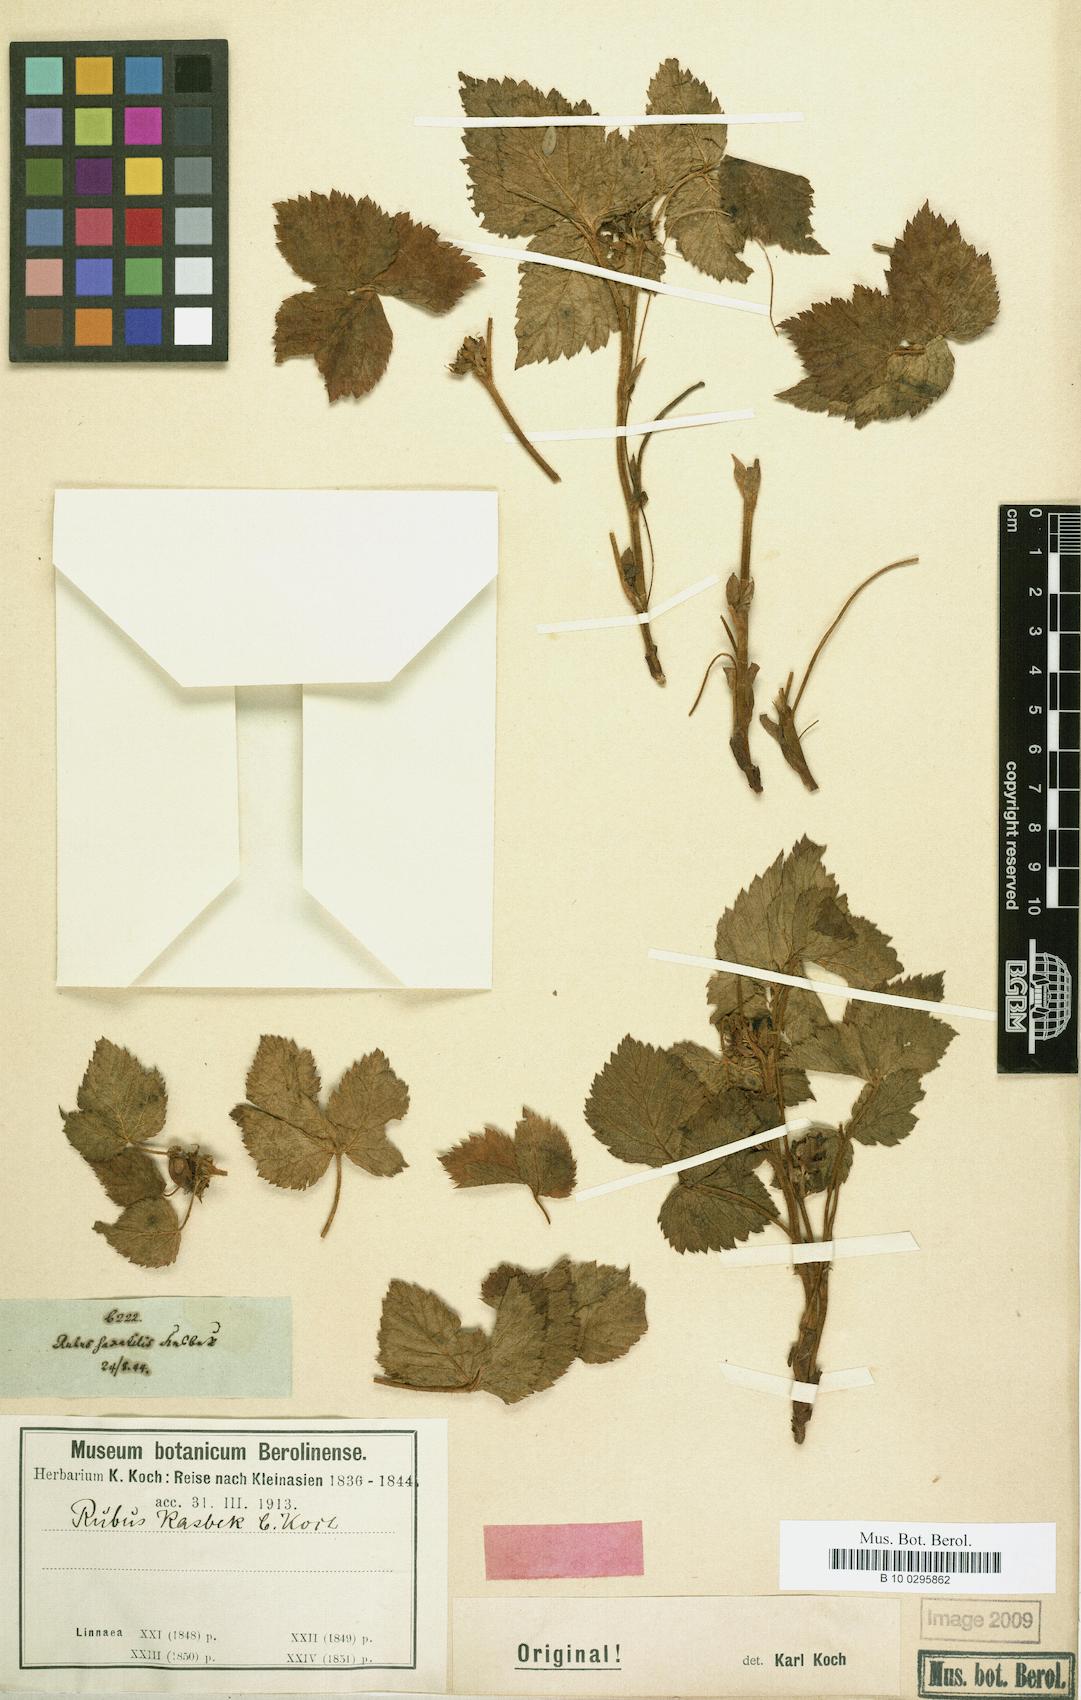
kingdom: Plantae
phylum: Tracheophyta
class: Magnoliopsida
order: Rosales
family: Rosaceae
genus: Rubus
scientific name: Rubus saxatilis
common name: Stone bramble
